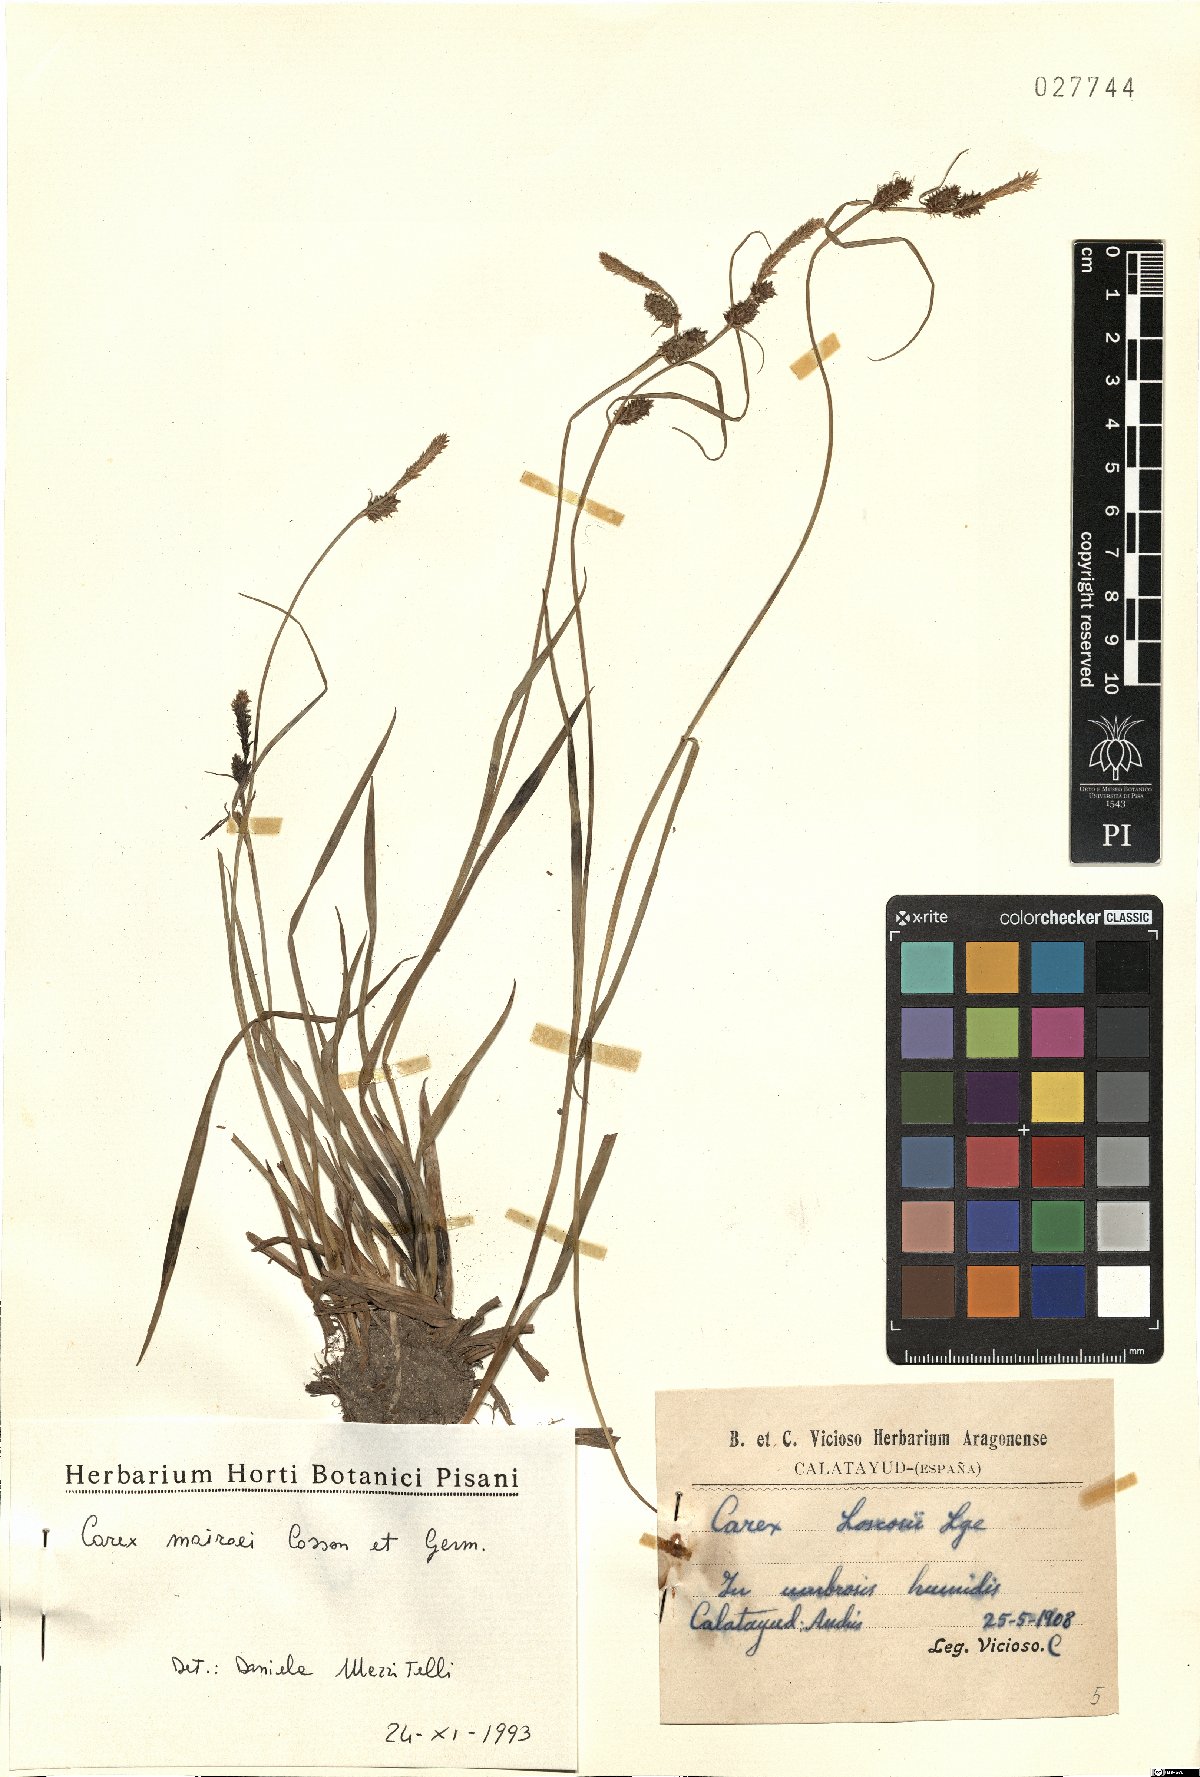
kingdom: Plantae
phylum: Tracheophyta
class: Liliopsida
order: Poales
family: Cyperaceae
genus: Carex
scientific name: Carex mairei
